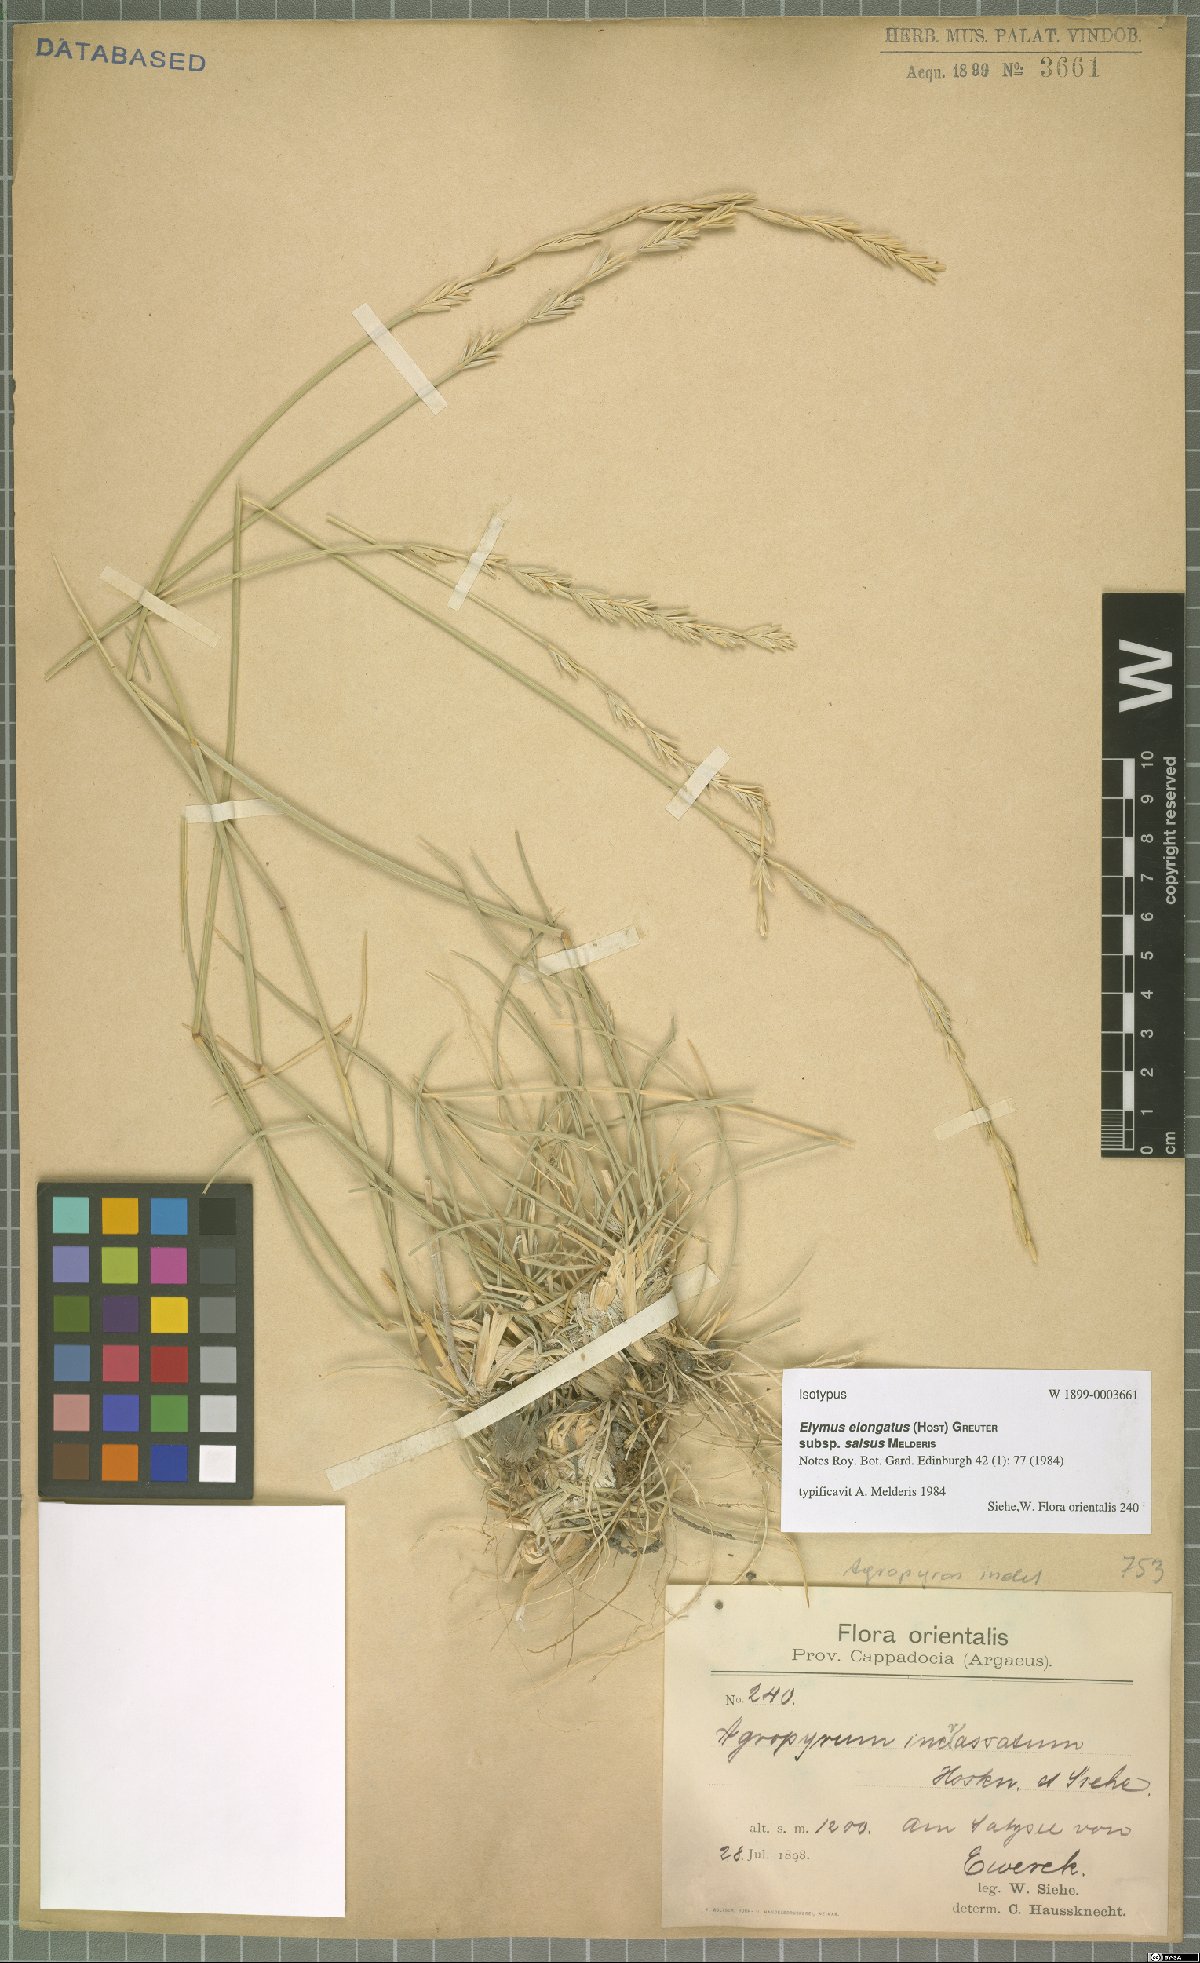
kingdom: Plantae
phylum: Tracheophyta
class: Liliopsida
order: Poales
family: Poaceae
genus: Thinopyrum
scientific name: Thinopyrum elongatum
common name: Tall wheatgrass
